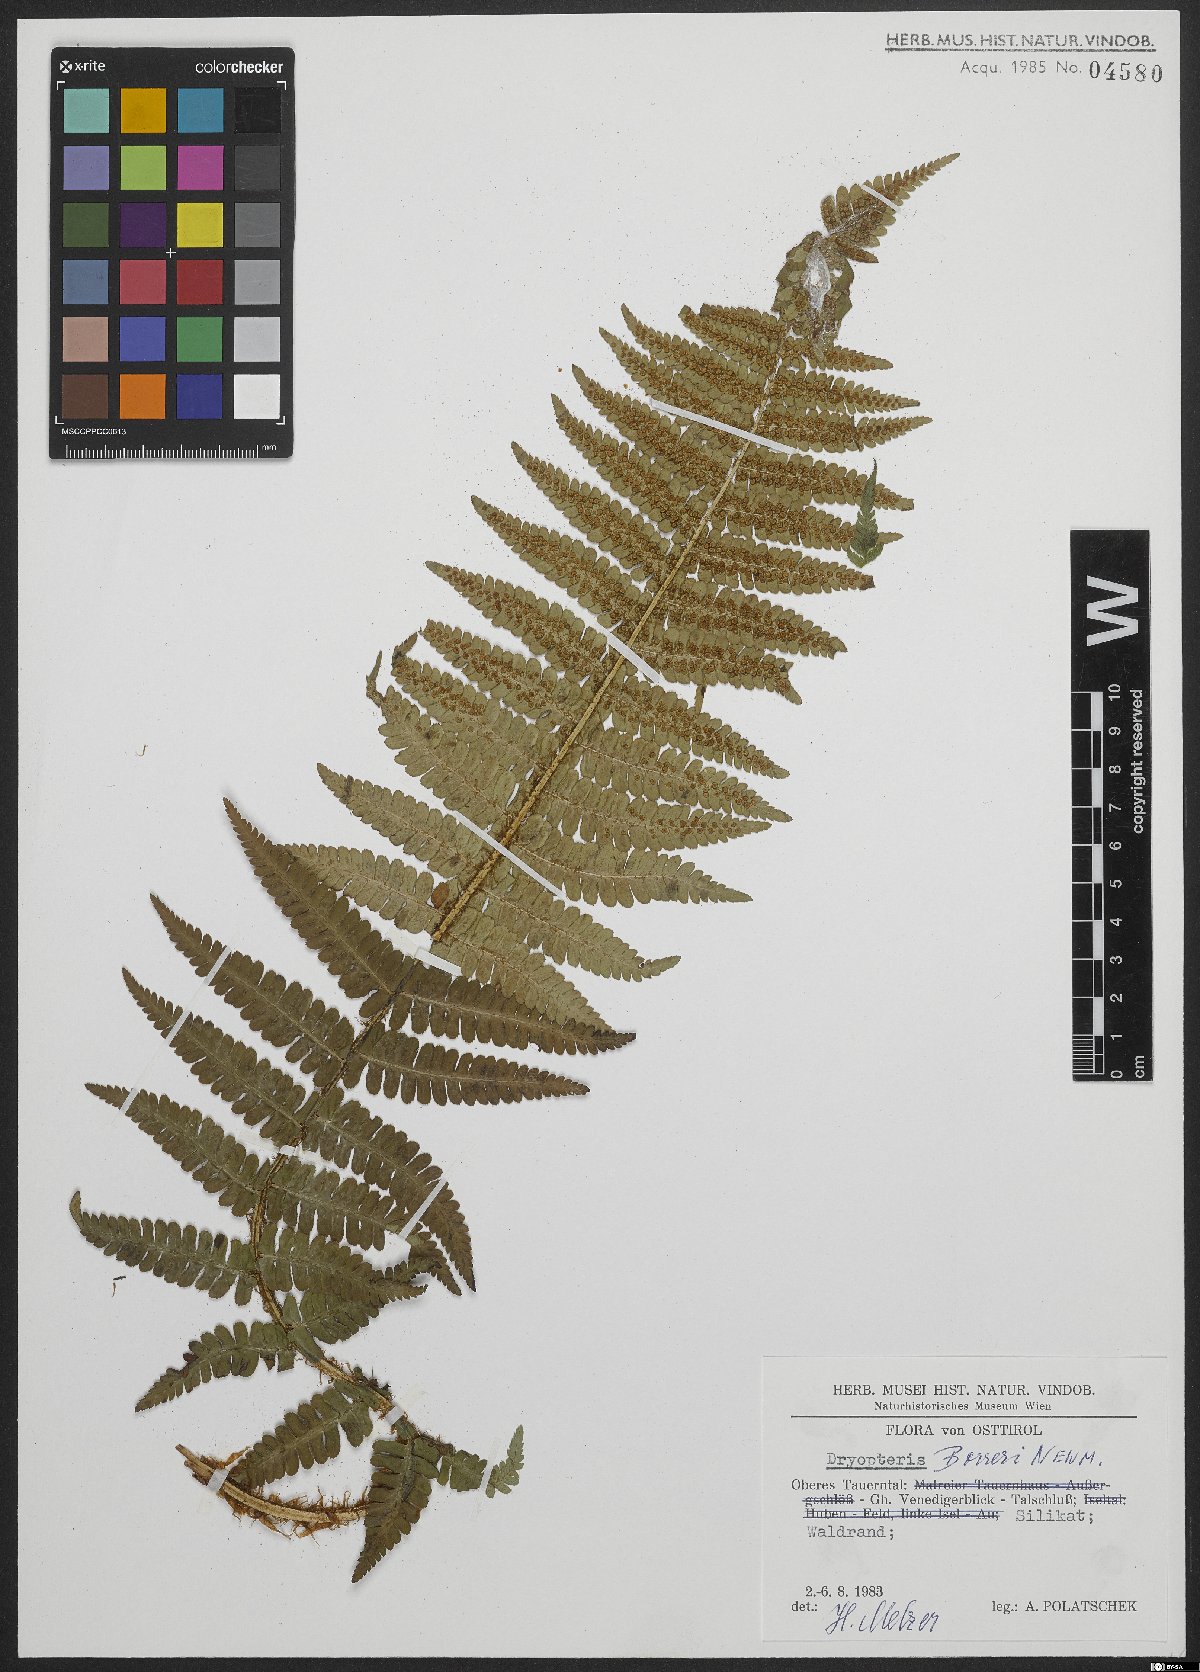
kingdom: Plantae
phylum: Tracheophyta
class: Polypodiopsida
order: Polypodiales
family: Dryopteridaceae
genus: Dryopteris
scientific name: Dryopteris cambrensis
